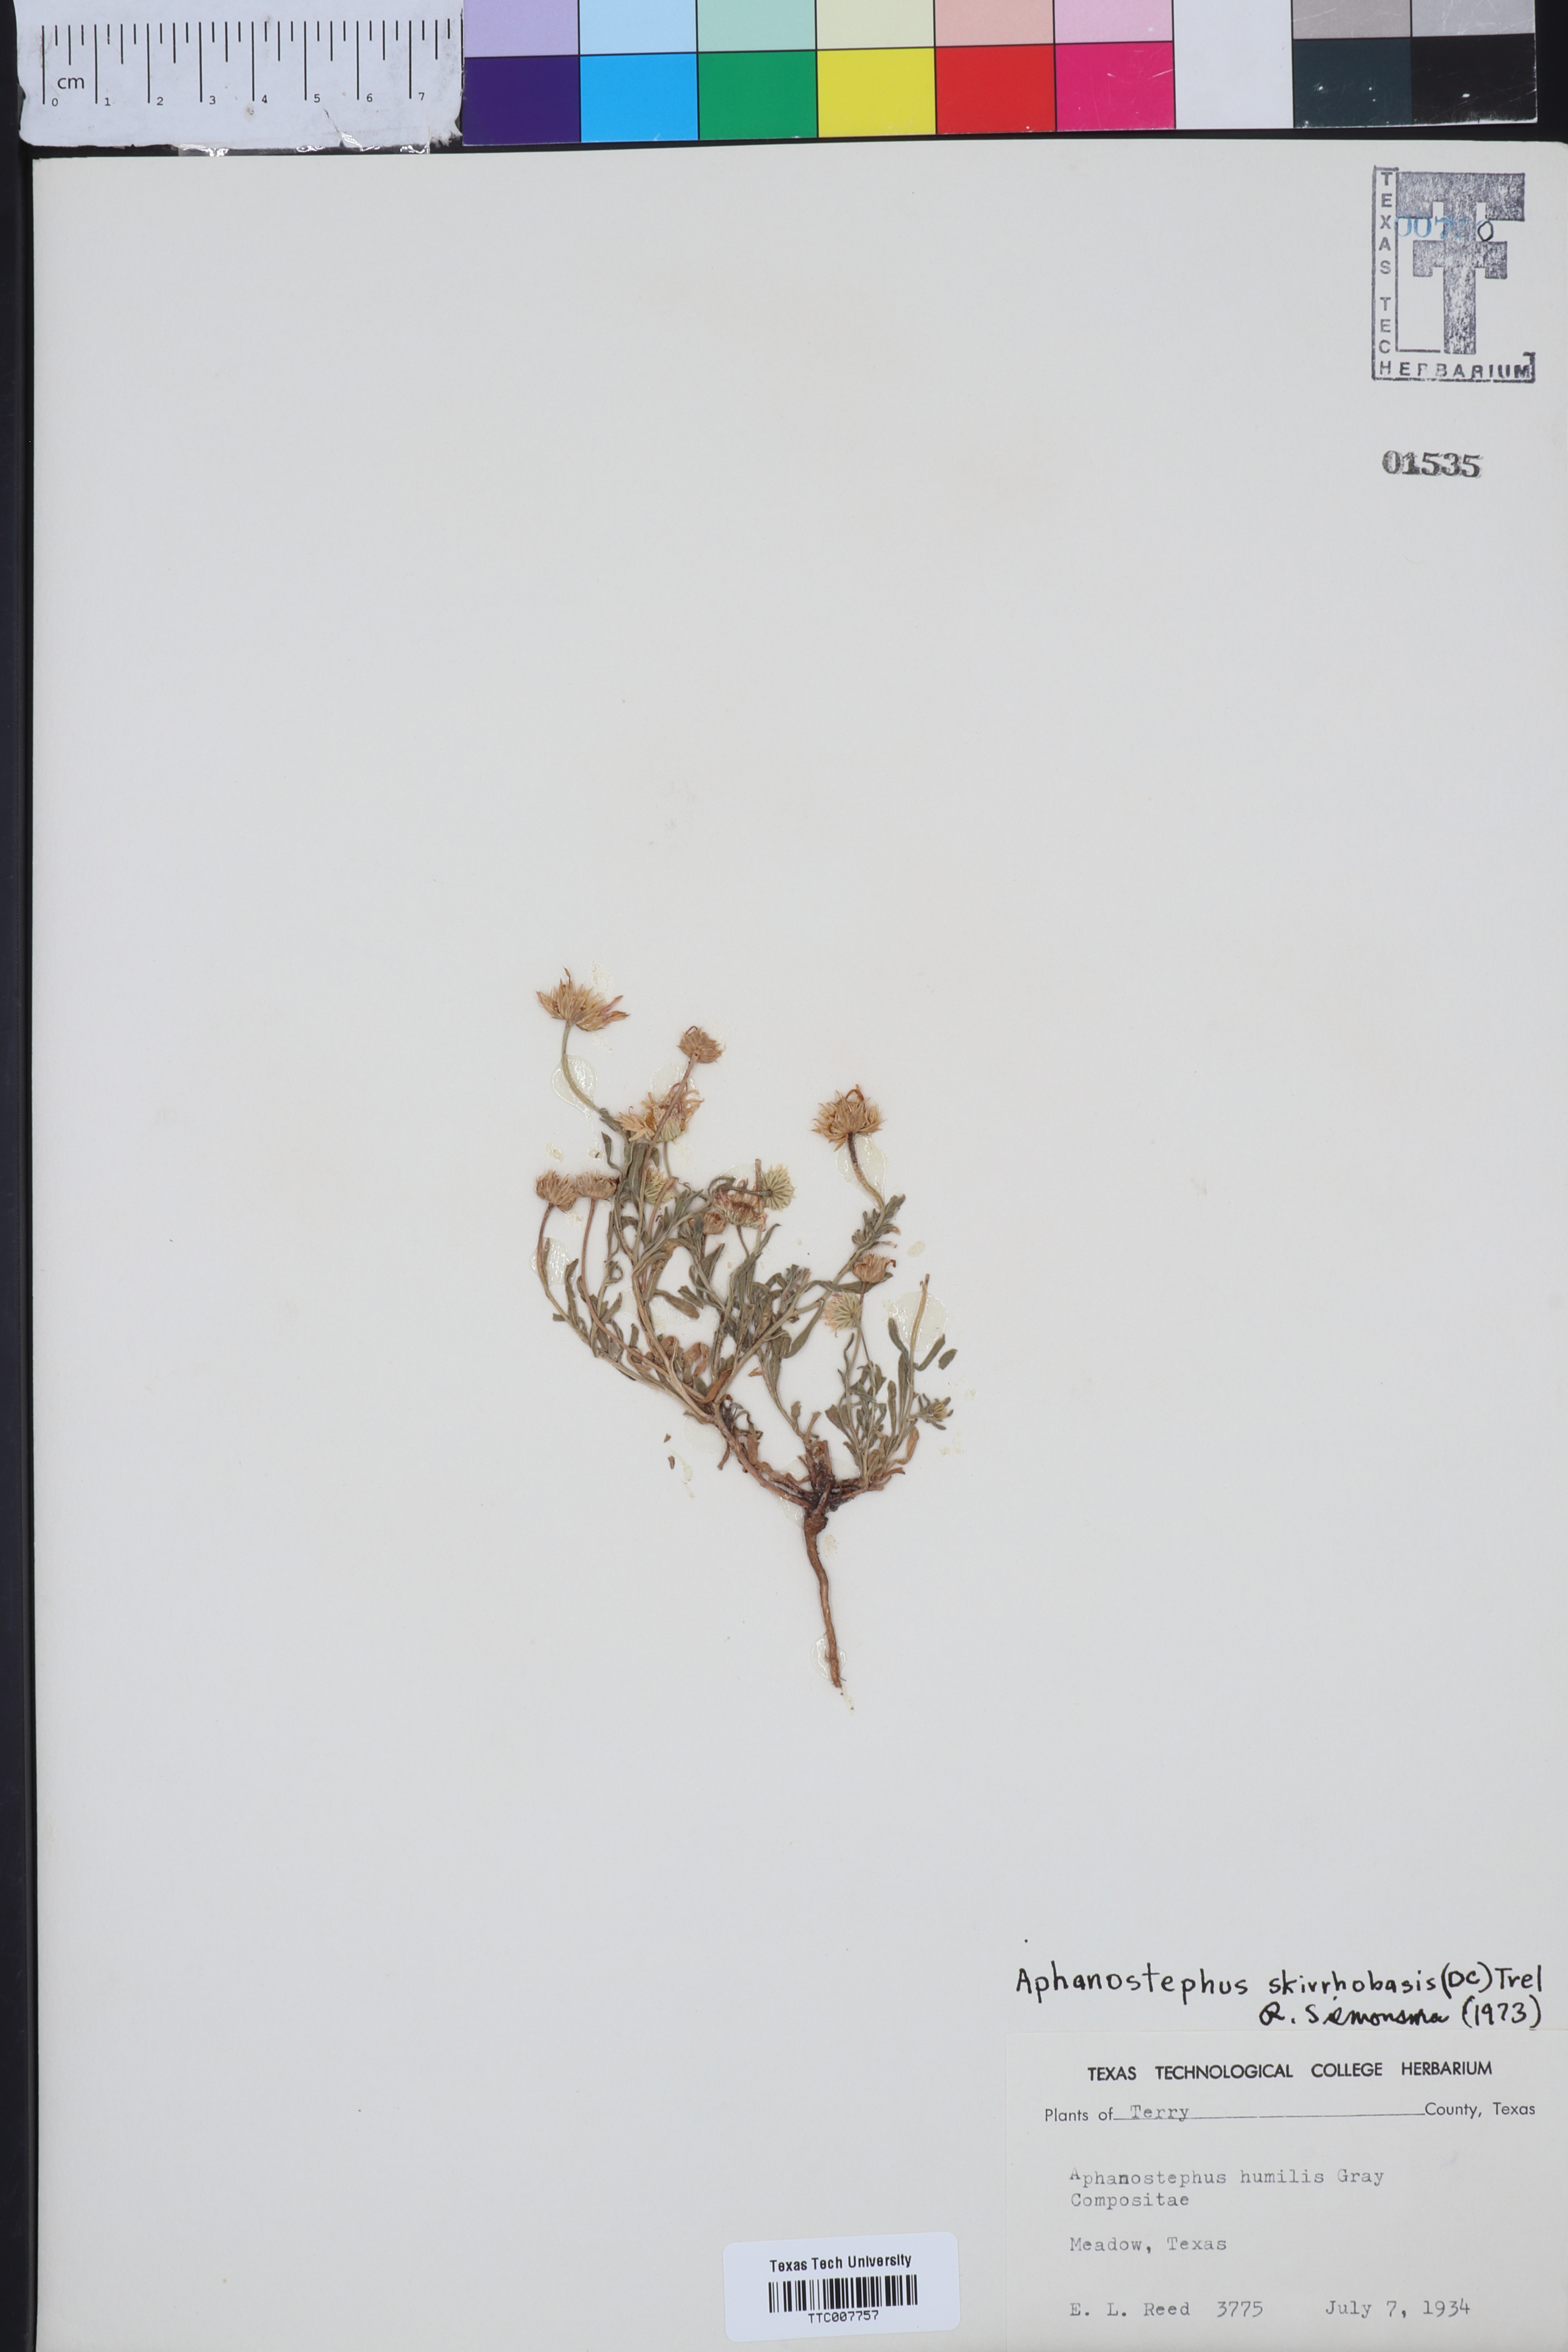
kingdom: Plantae
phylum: Tracheophyta
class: Magnoliopsida
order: Asterales
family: Asteraceae
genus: Aphanostephus
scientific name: Aphanostephus skirrhobasis
